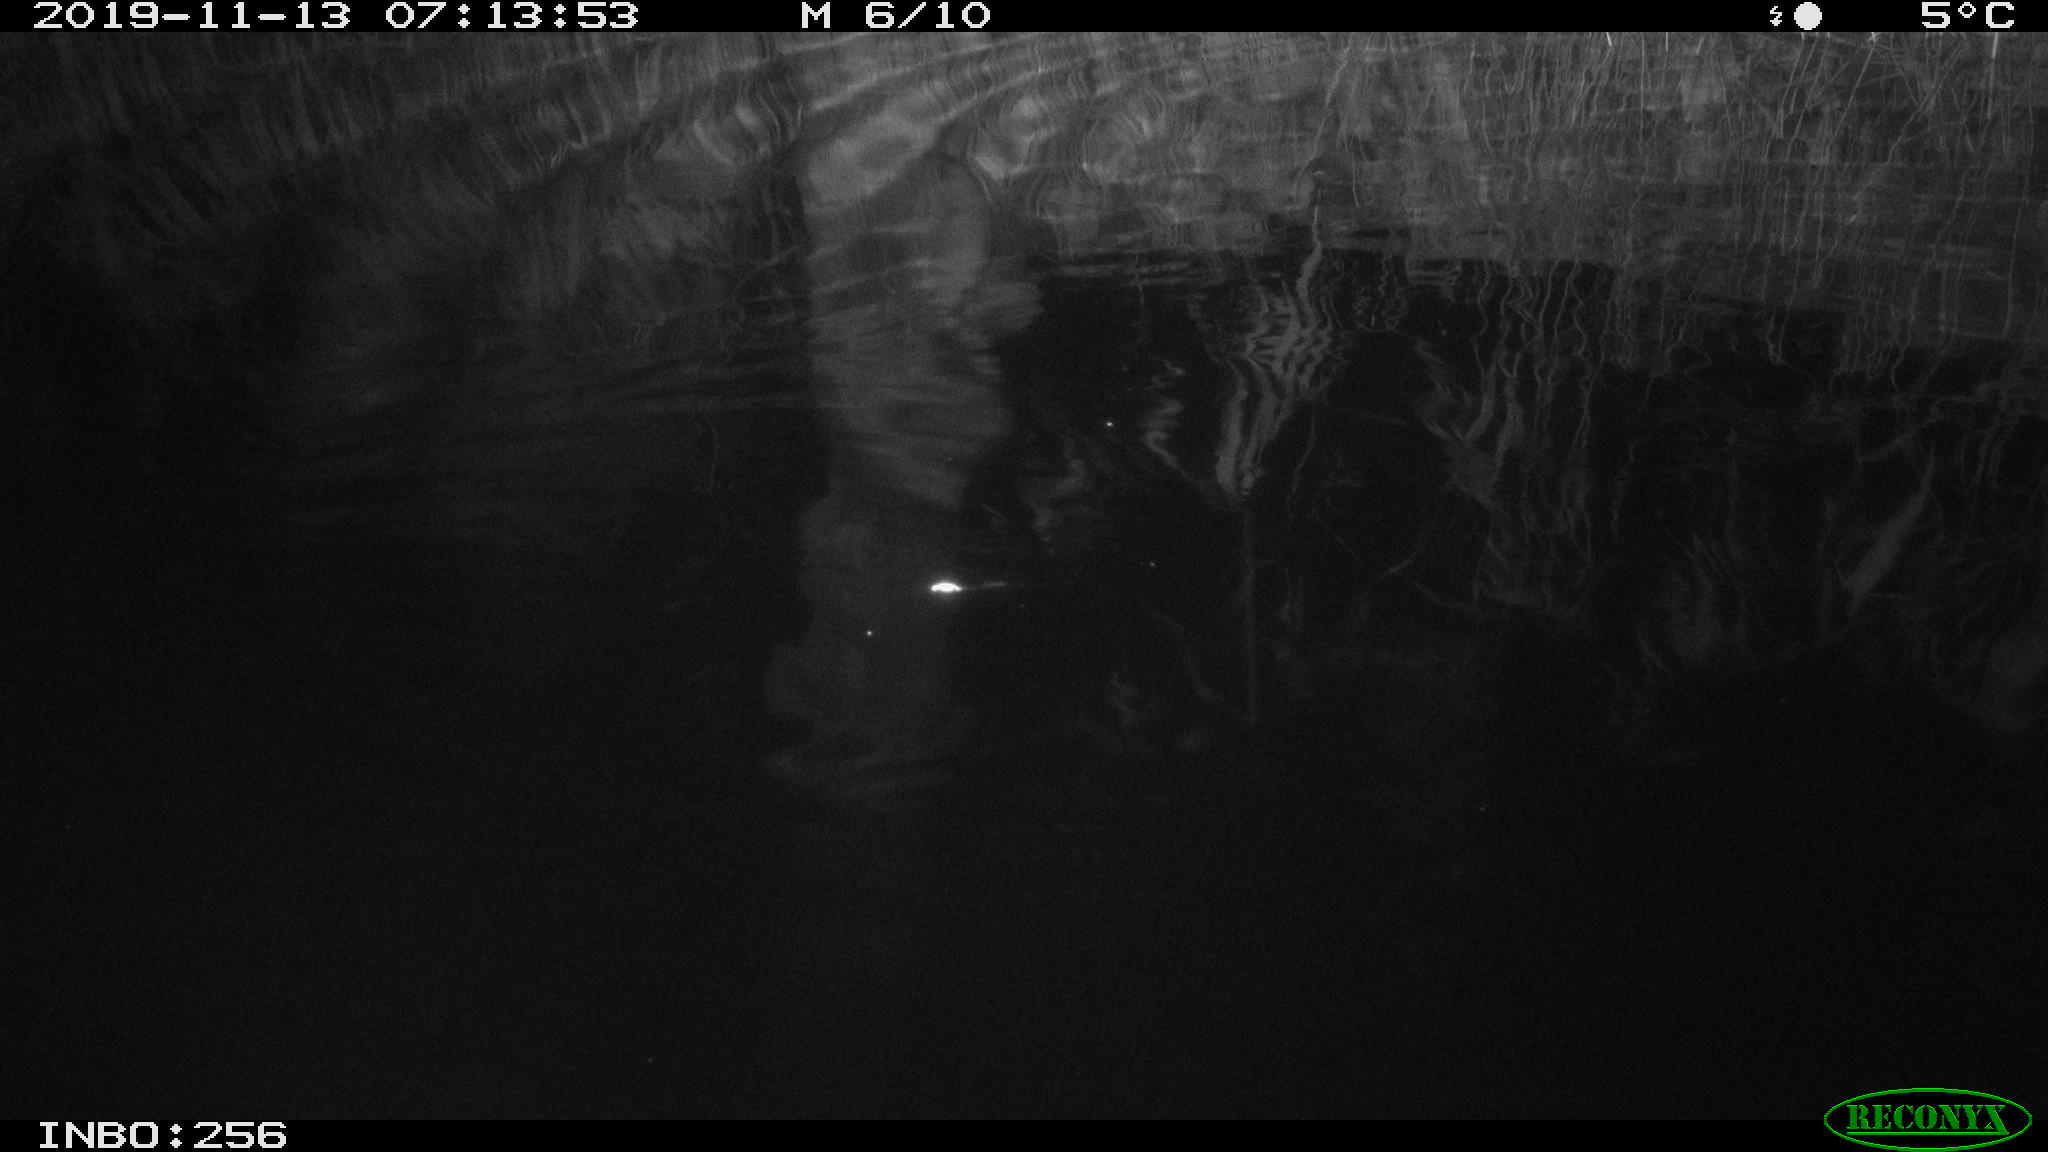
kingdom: Animalia
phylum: Chordata
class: Mammalia
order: Rodentia
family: Muridae
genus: Rattus
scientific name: Rattus norvegicus
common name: Brown rat
